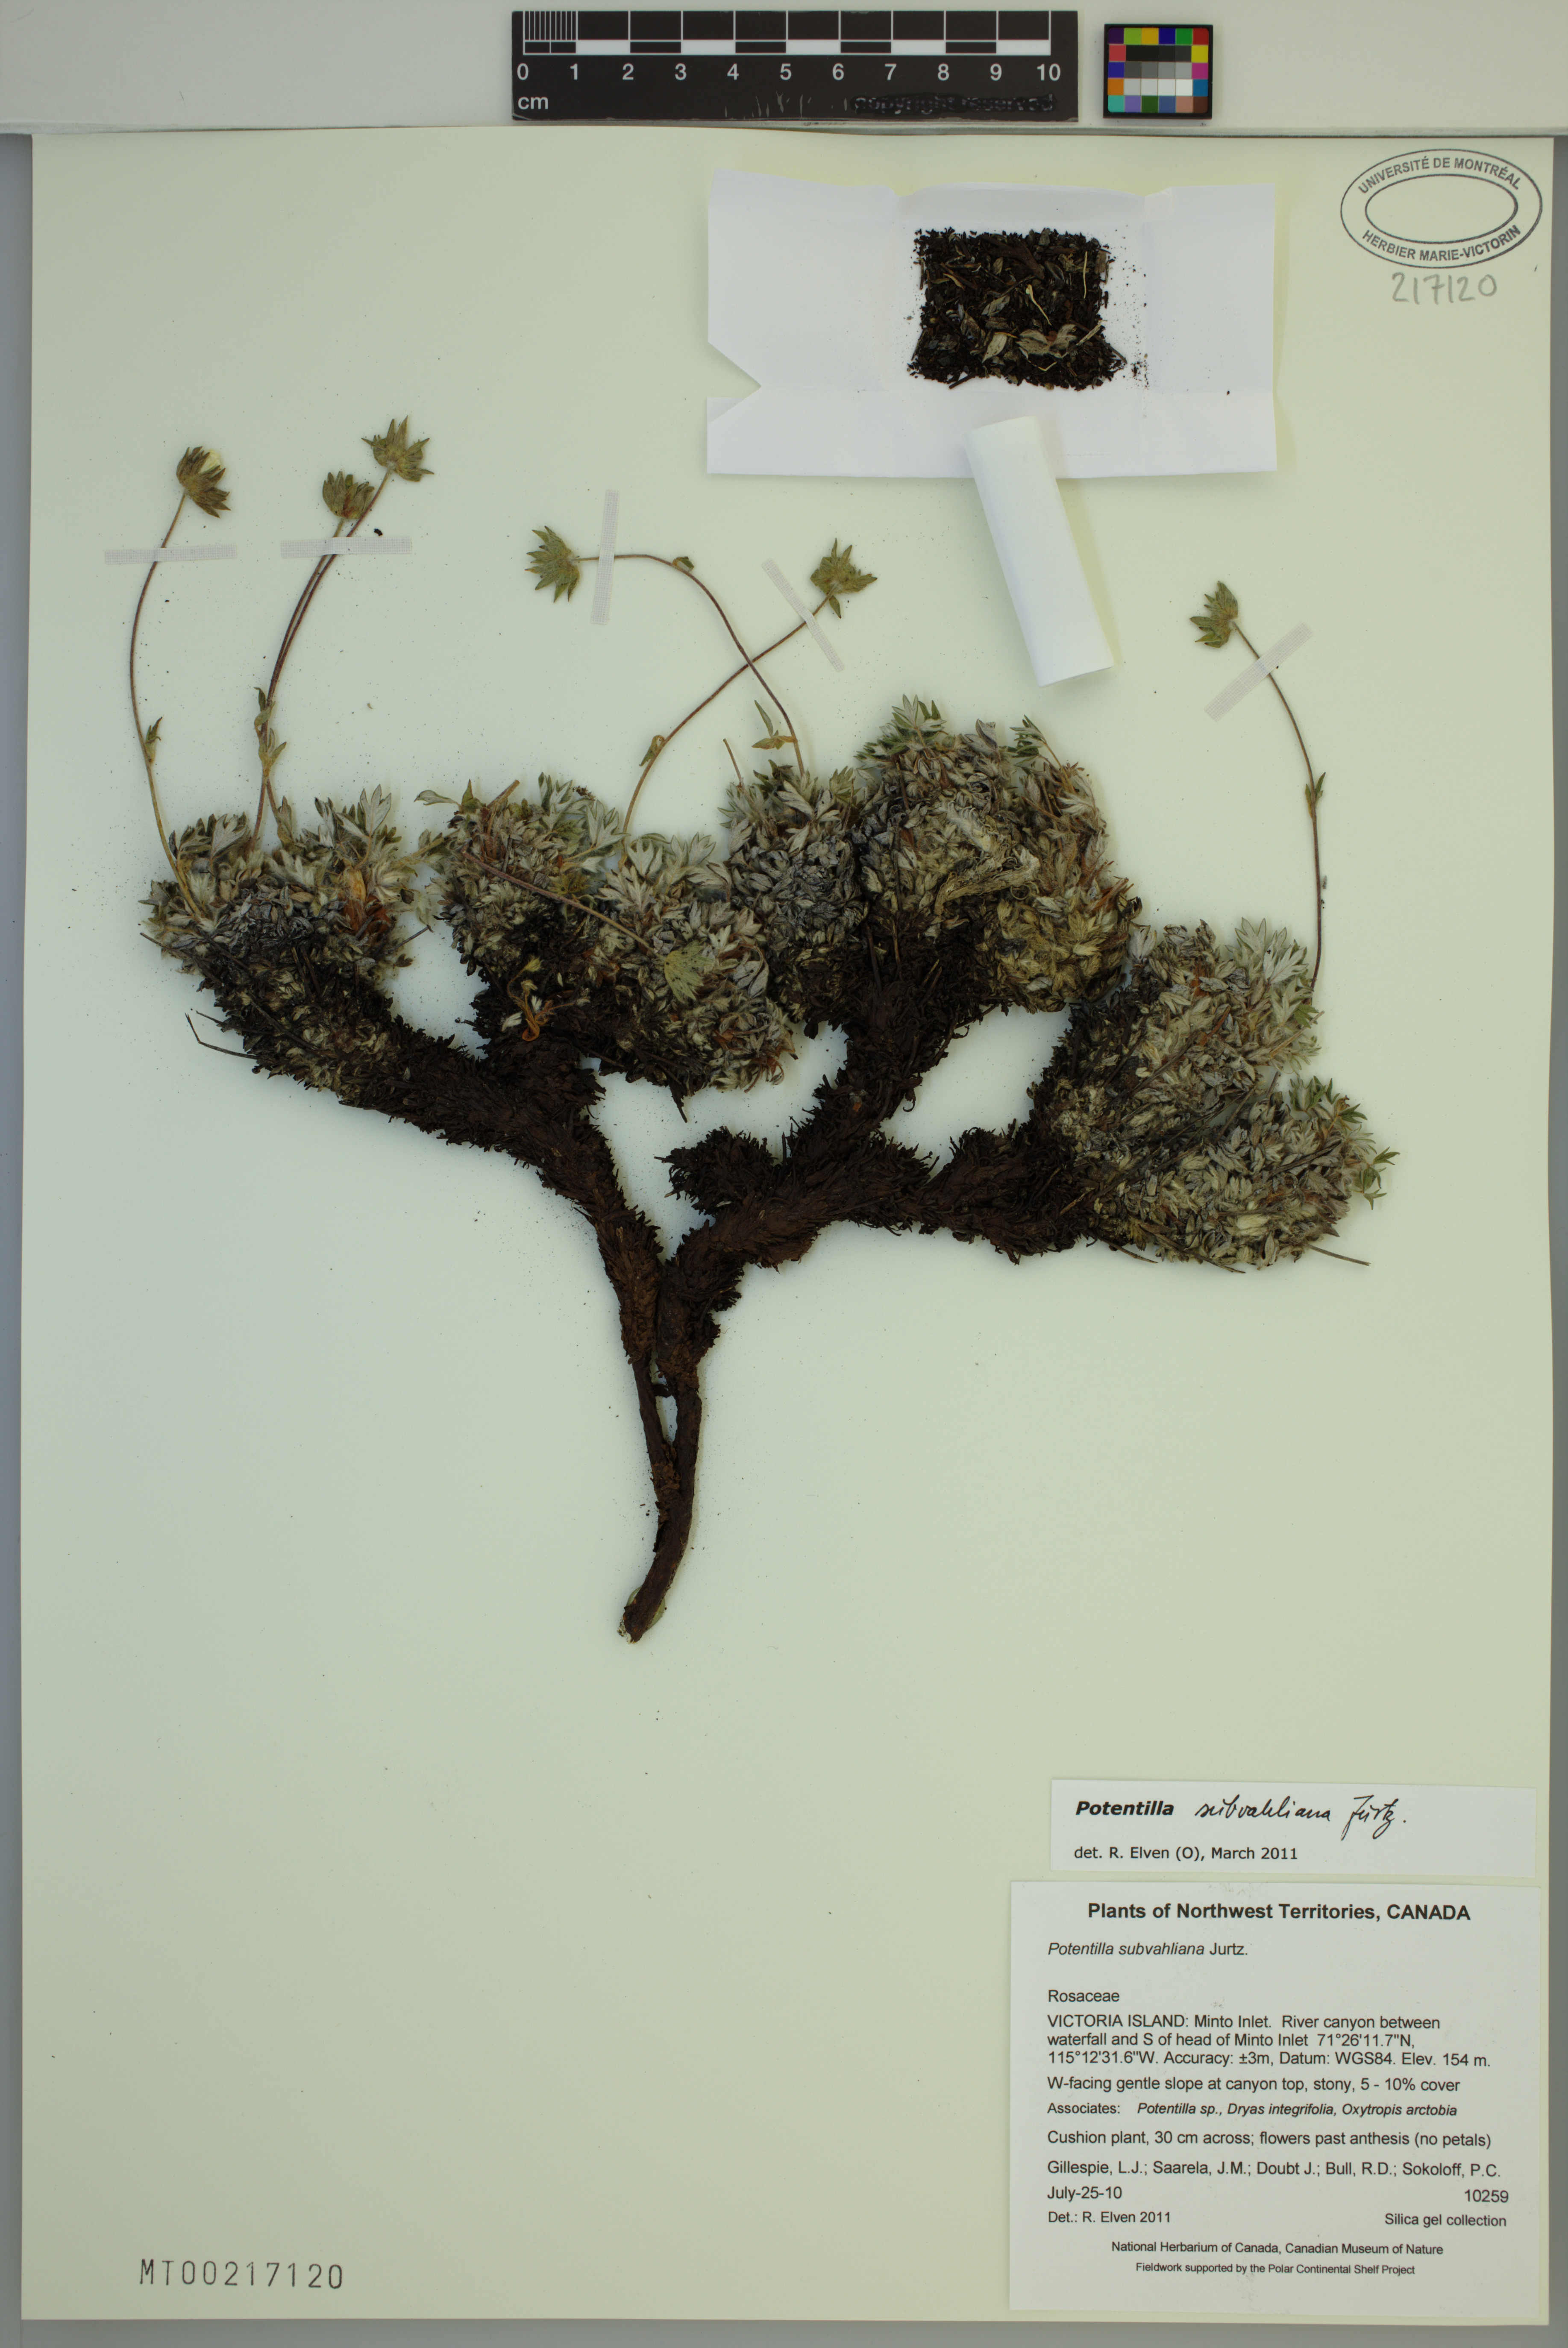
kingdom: Plantae
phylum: Tracheophyta
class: Magnoliopsida
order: Rosales
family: Rosaceae
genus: Potentilla
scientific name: Potentilla subvahliana
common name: Far northern cinquefoil
